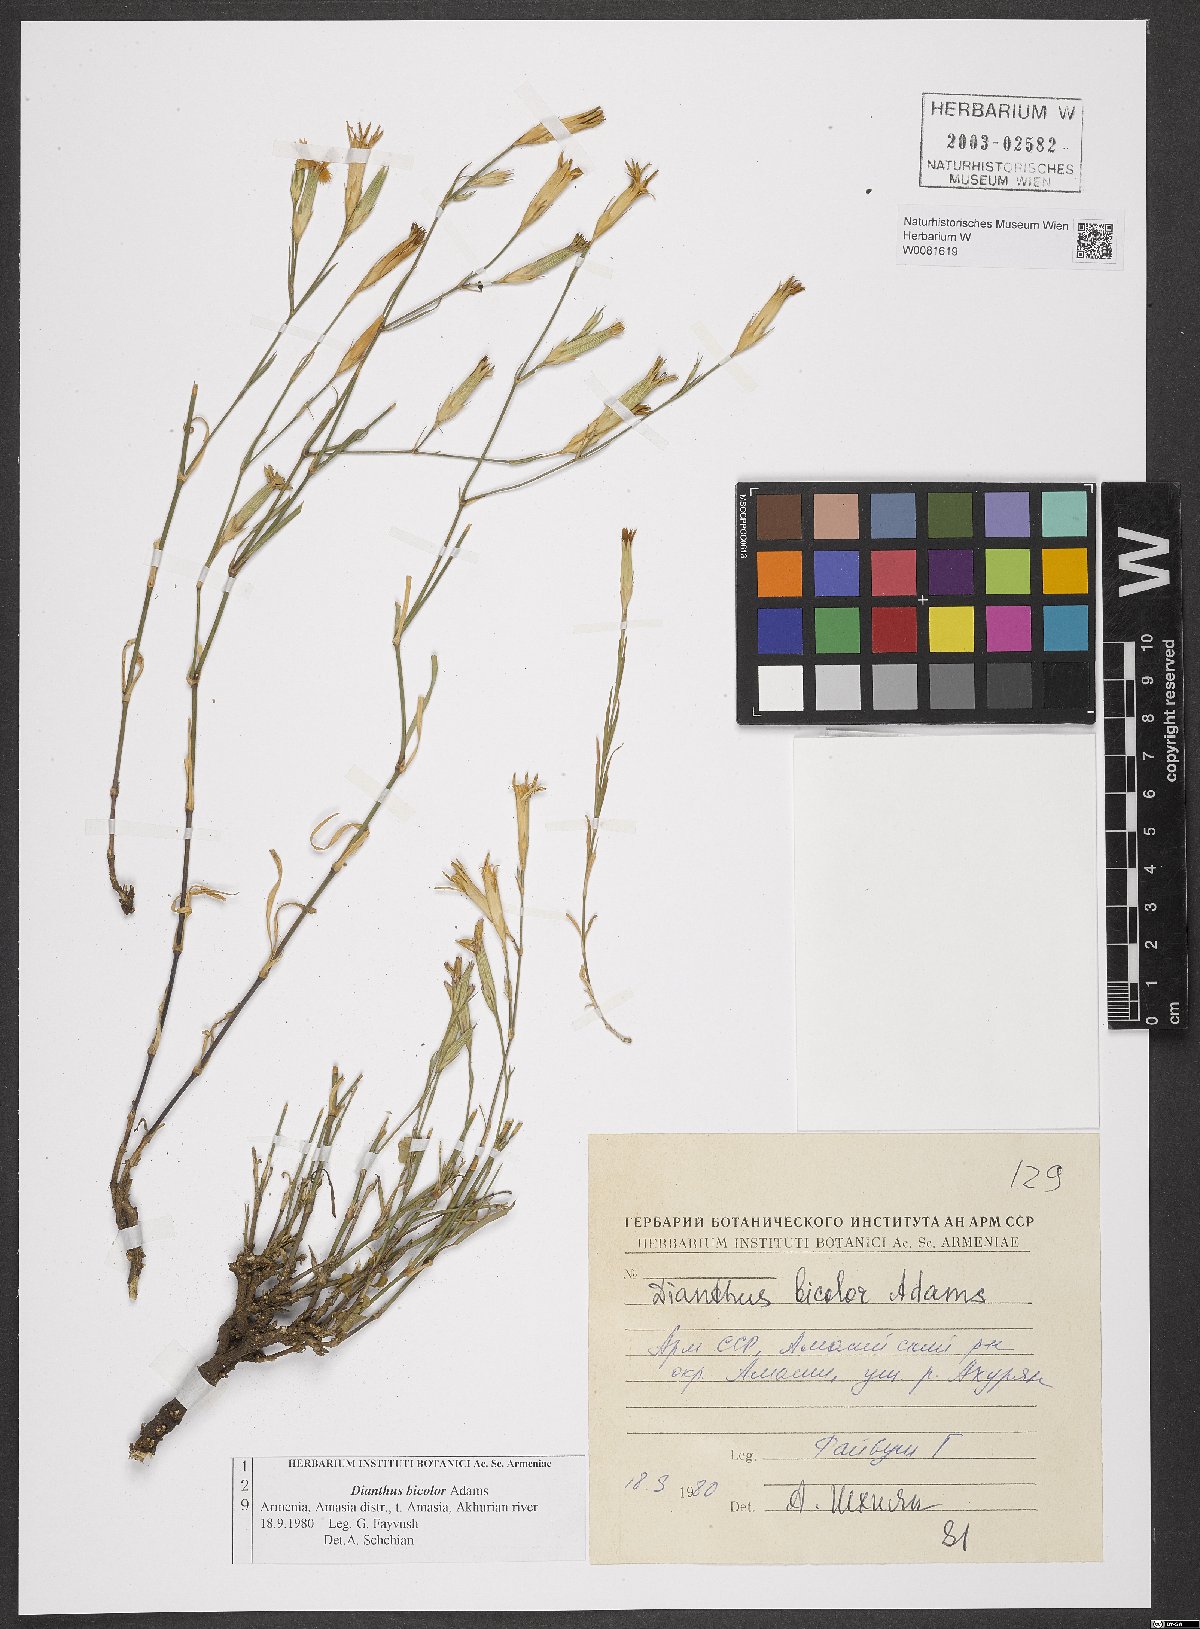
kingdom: Plantae
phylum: Tracheophyta
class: Magnoliopsida
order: Caryophyllales
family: Caryophyllaceae
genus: Dianthus
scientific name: Dianthus bicolor
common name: Bicolour pink
